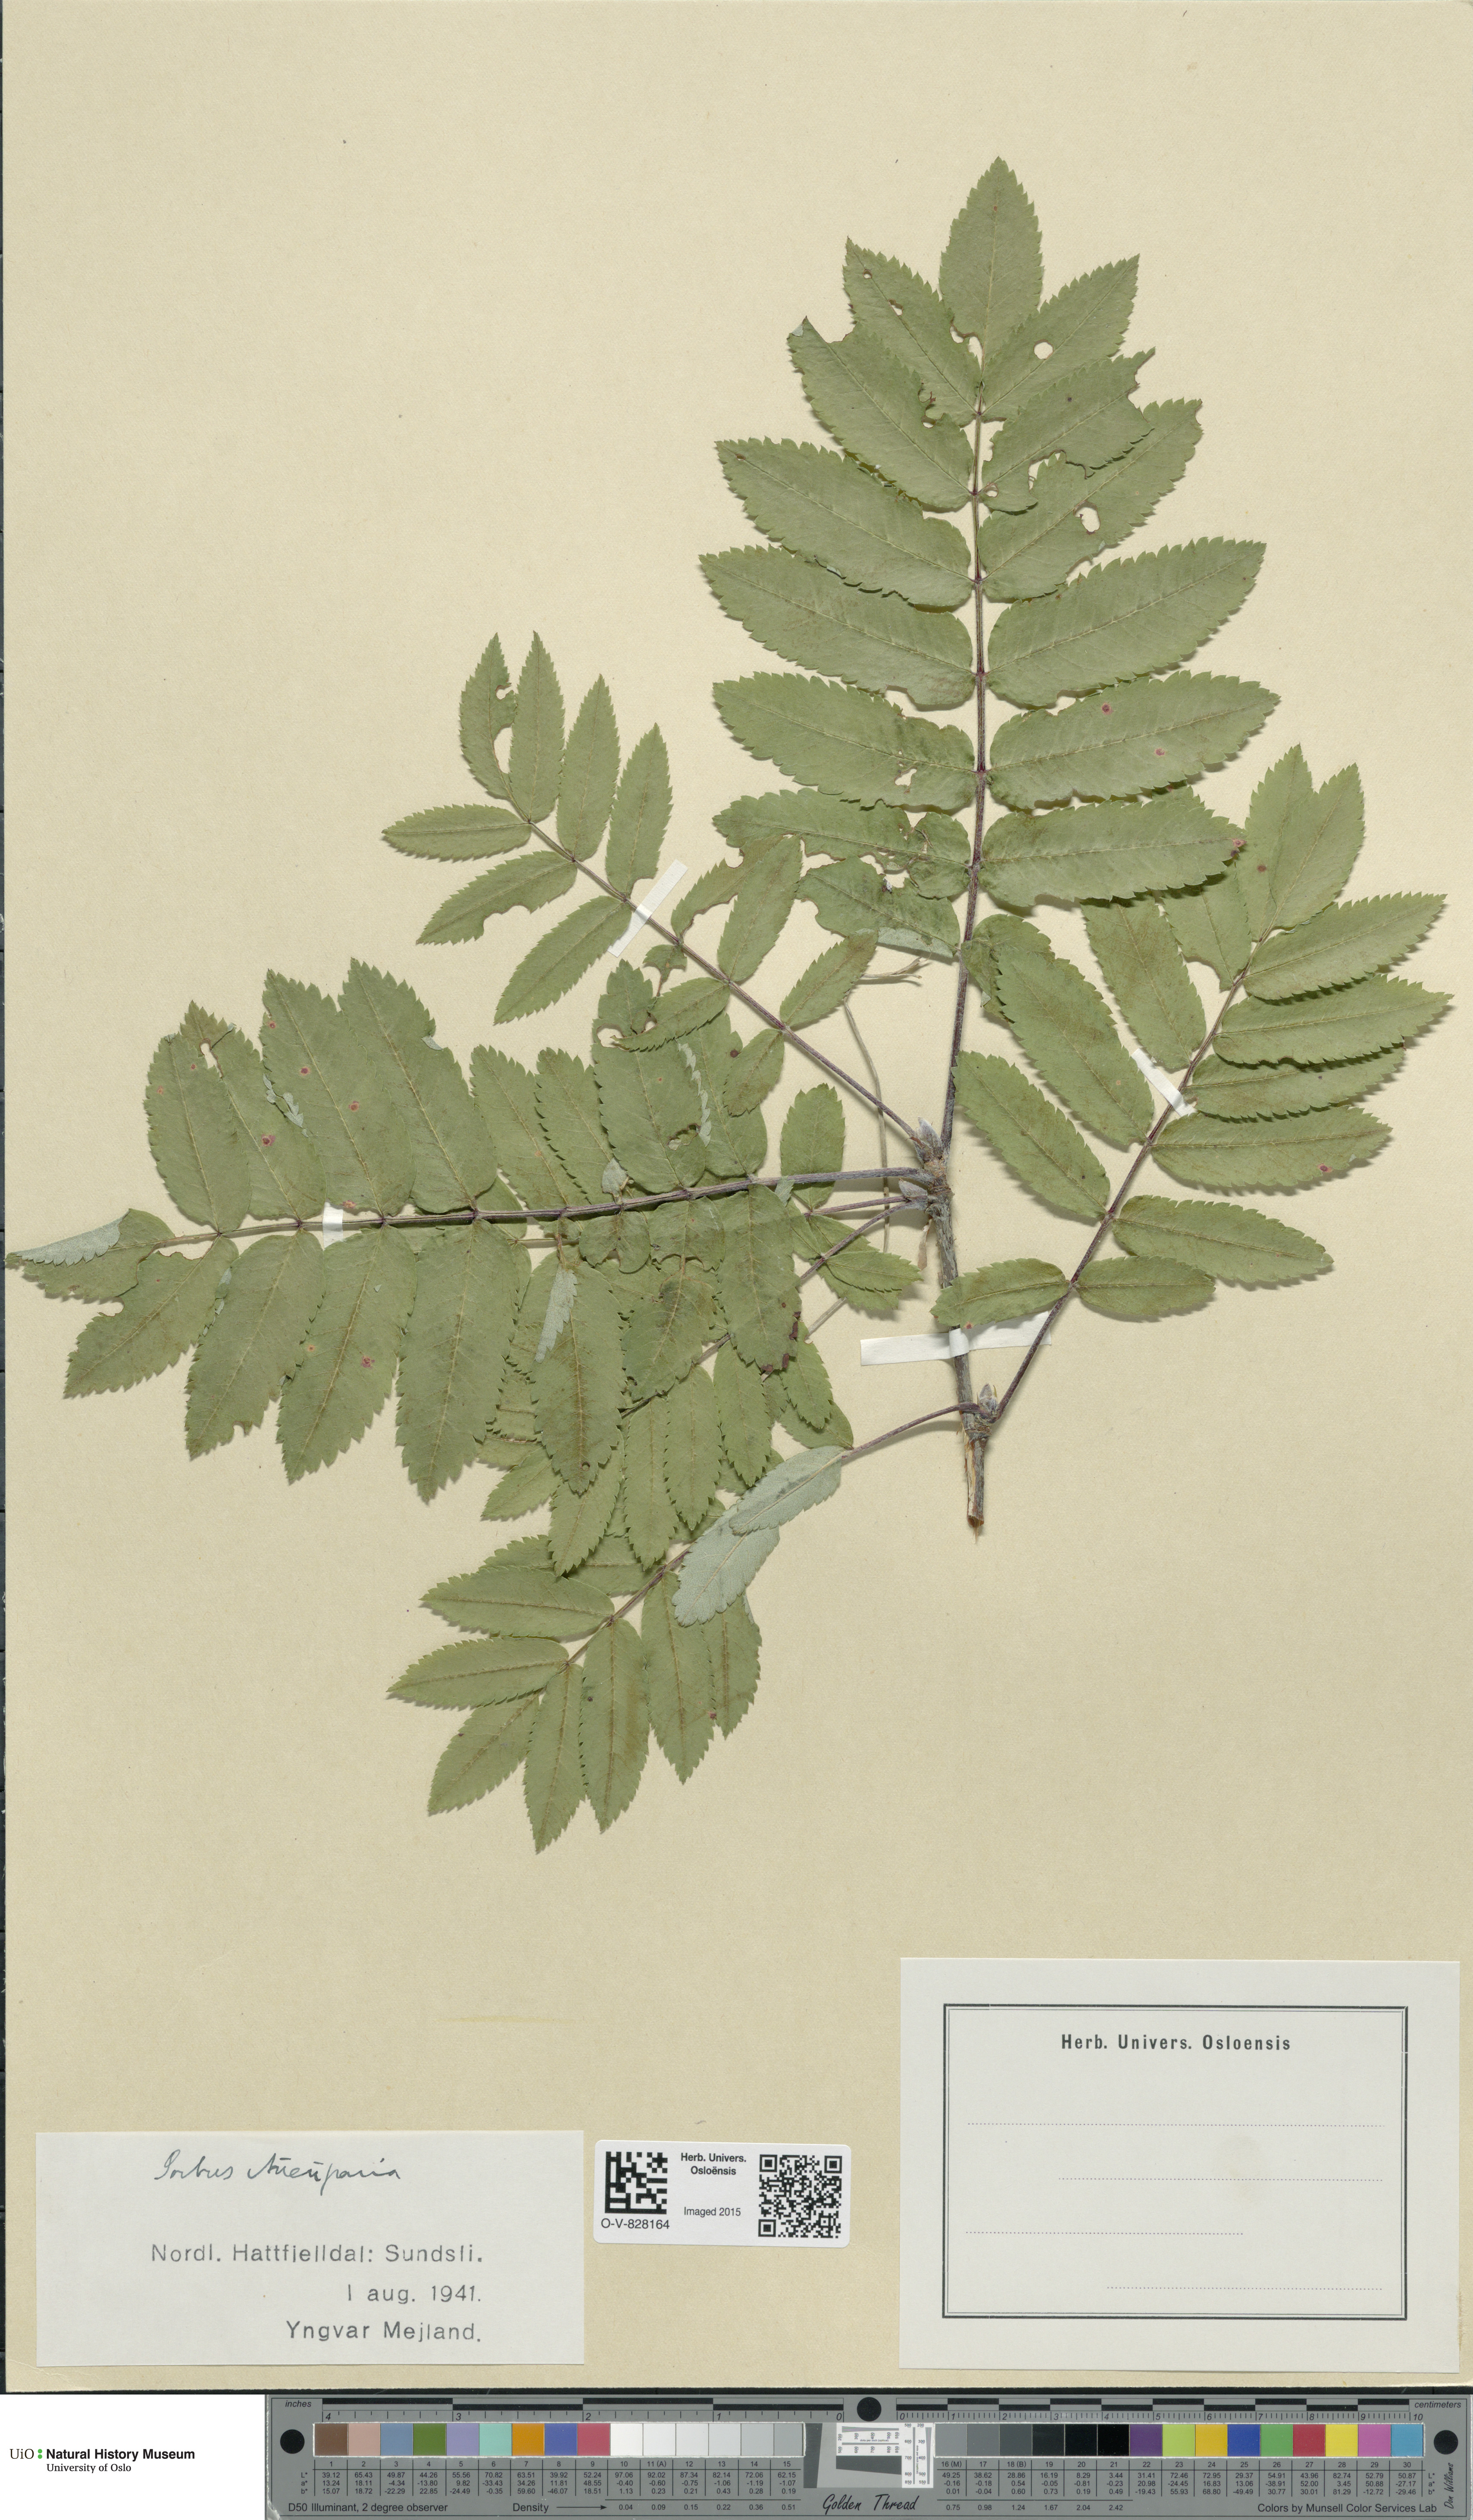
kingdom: Plantae
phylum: Tracheophyta
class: Magnoliopsida
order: Rosales
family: Rosaceae
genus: Sorbus
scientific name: Sorbus aucuparia
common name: Rowan
